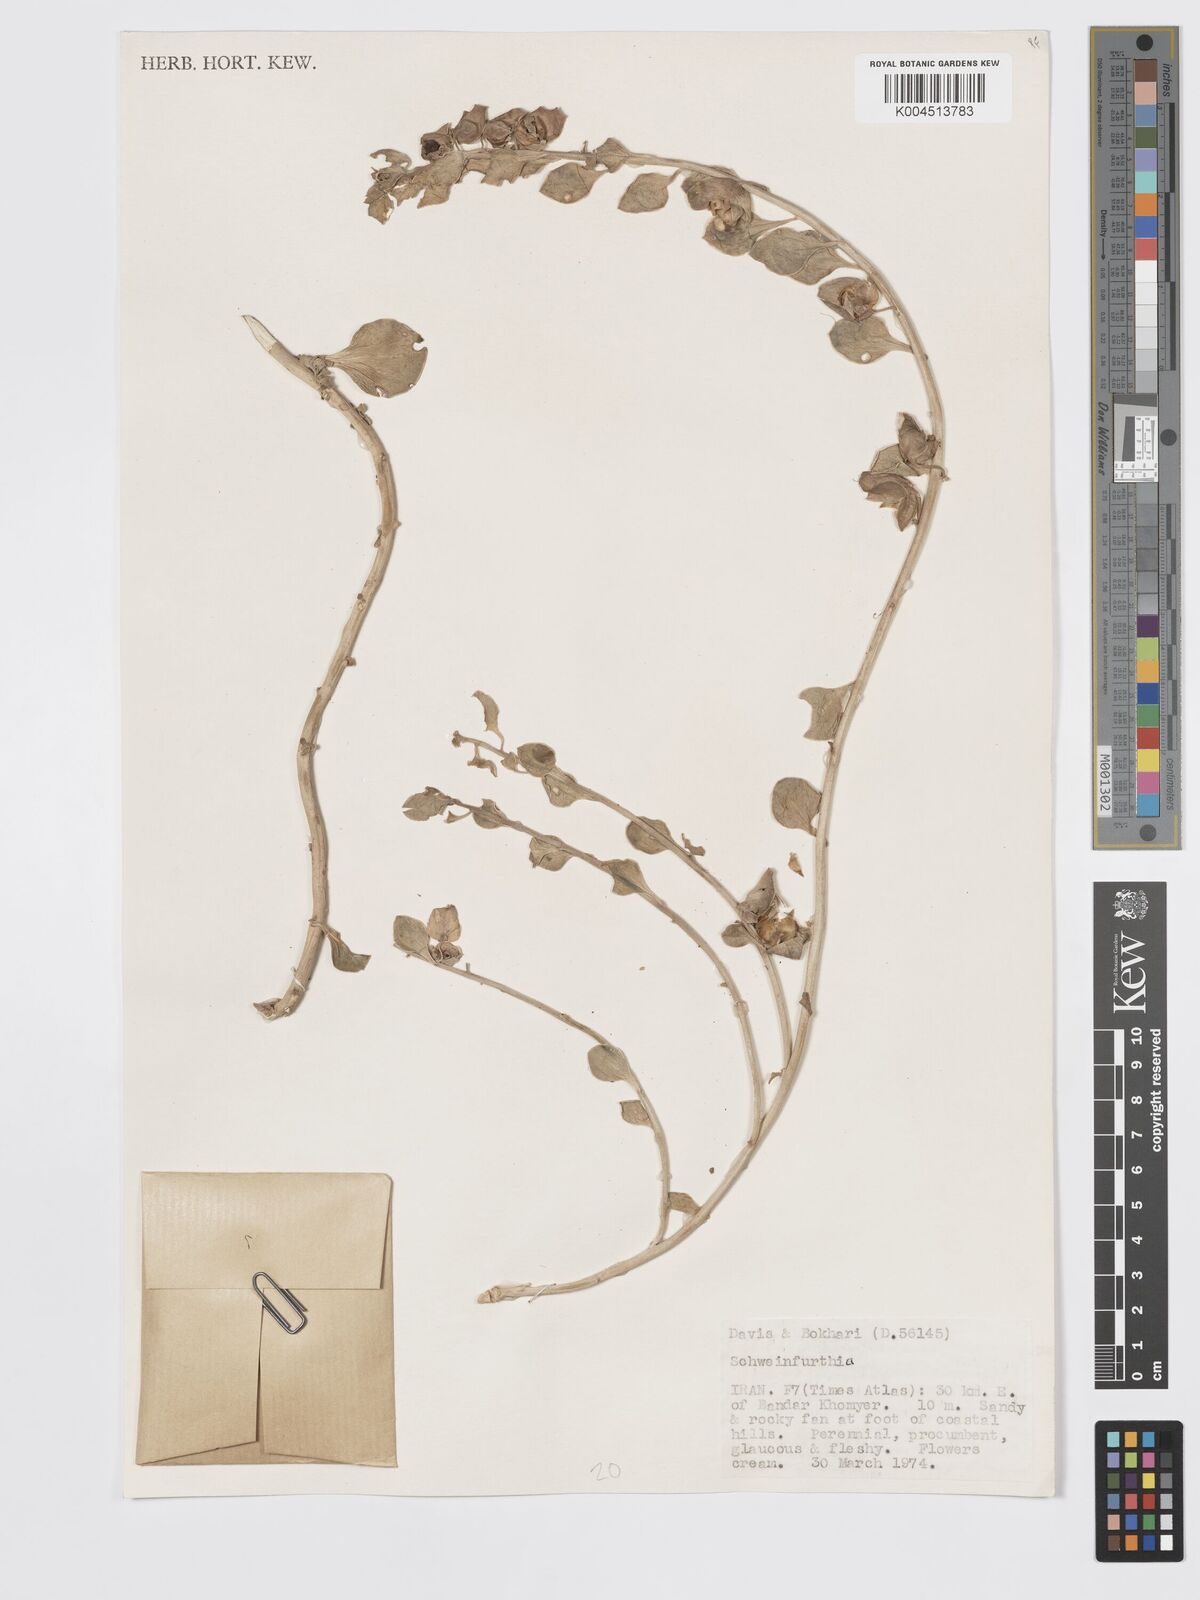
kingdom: Plantae
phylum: Tracheophyta
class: Magnoliopsida
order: Lamiales
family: Plantaginaceae
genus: Schweinfurthia
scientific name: Schweinfurthia
